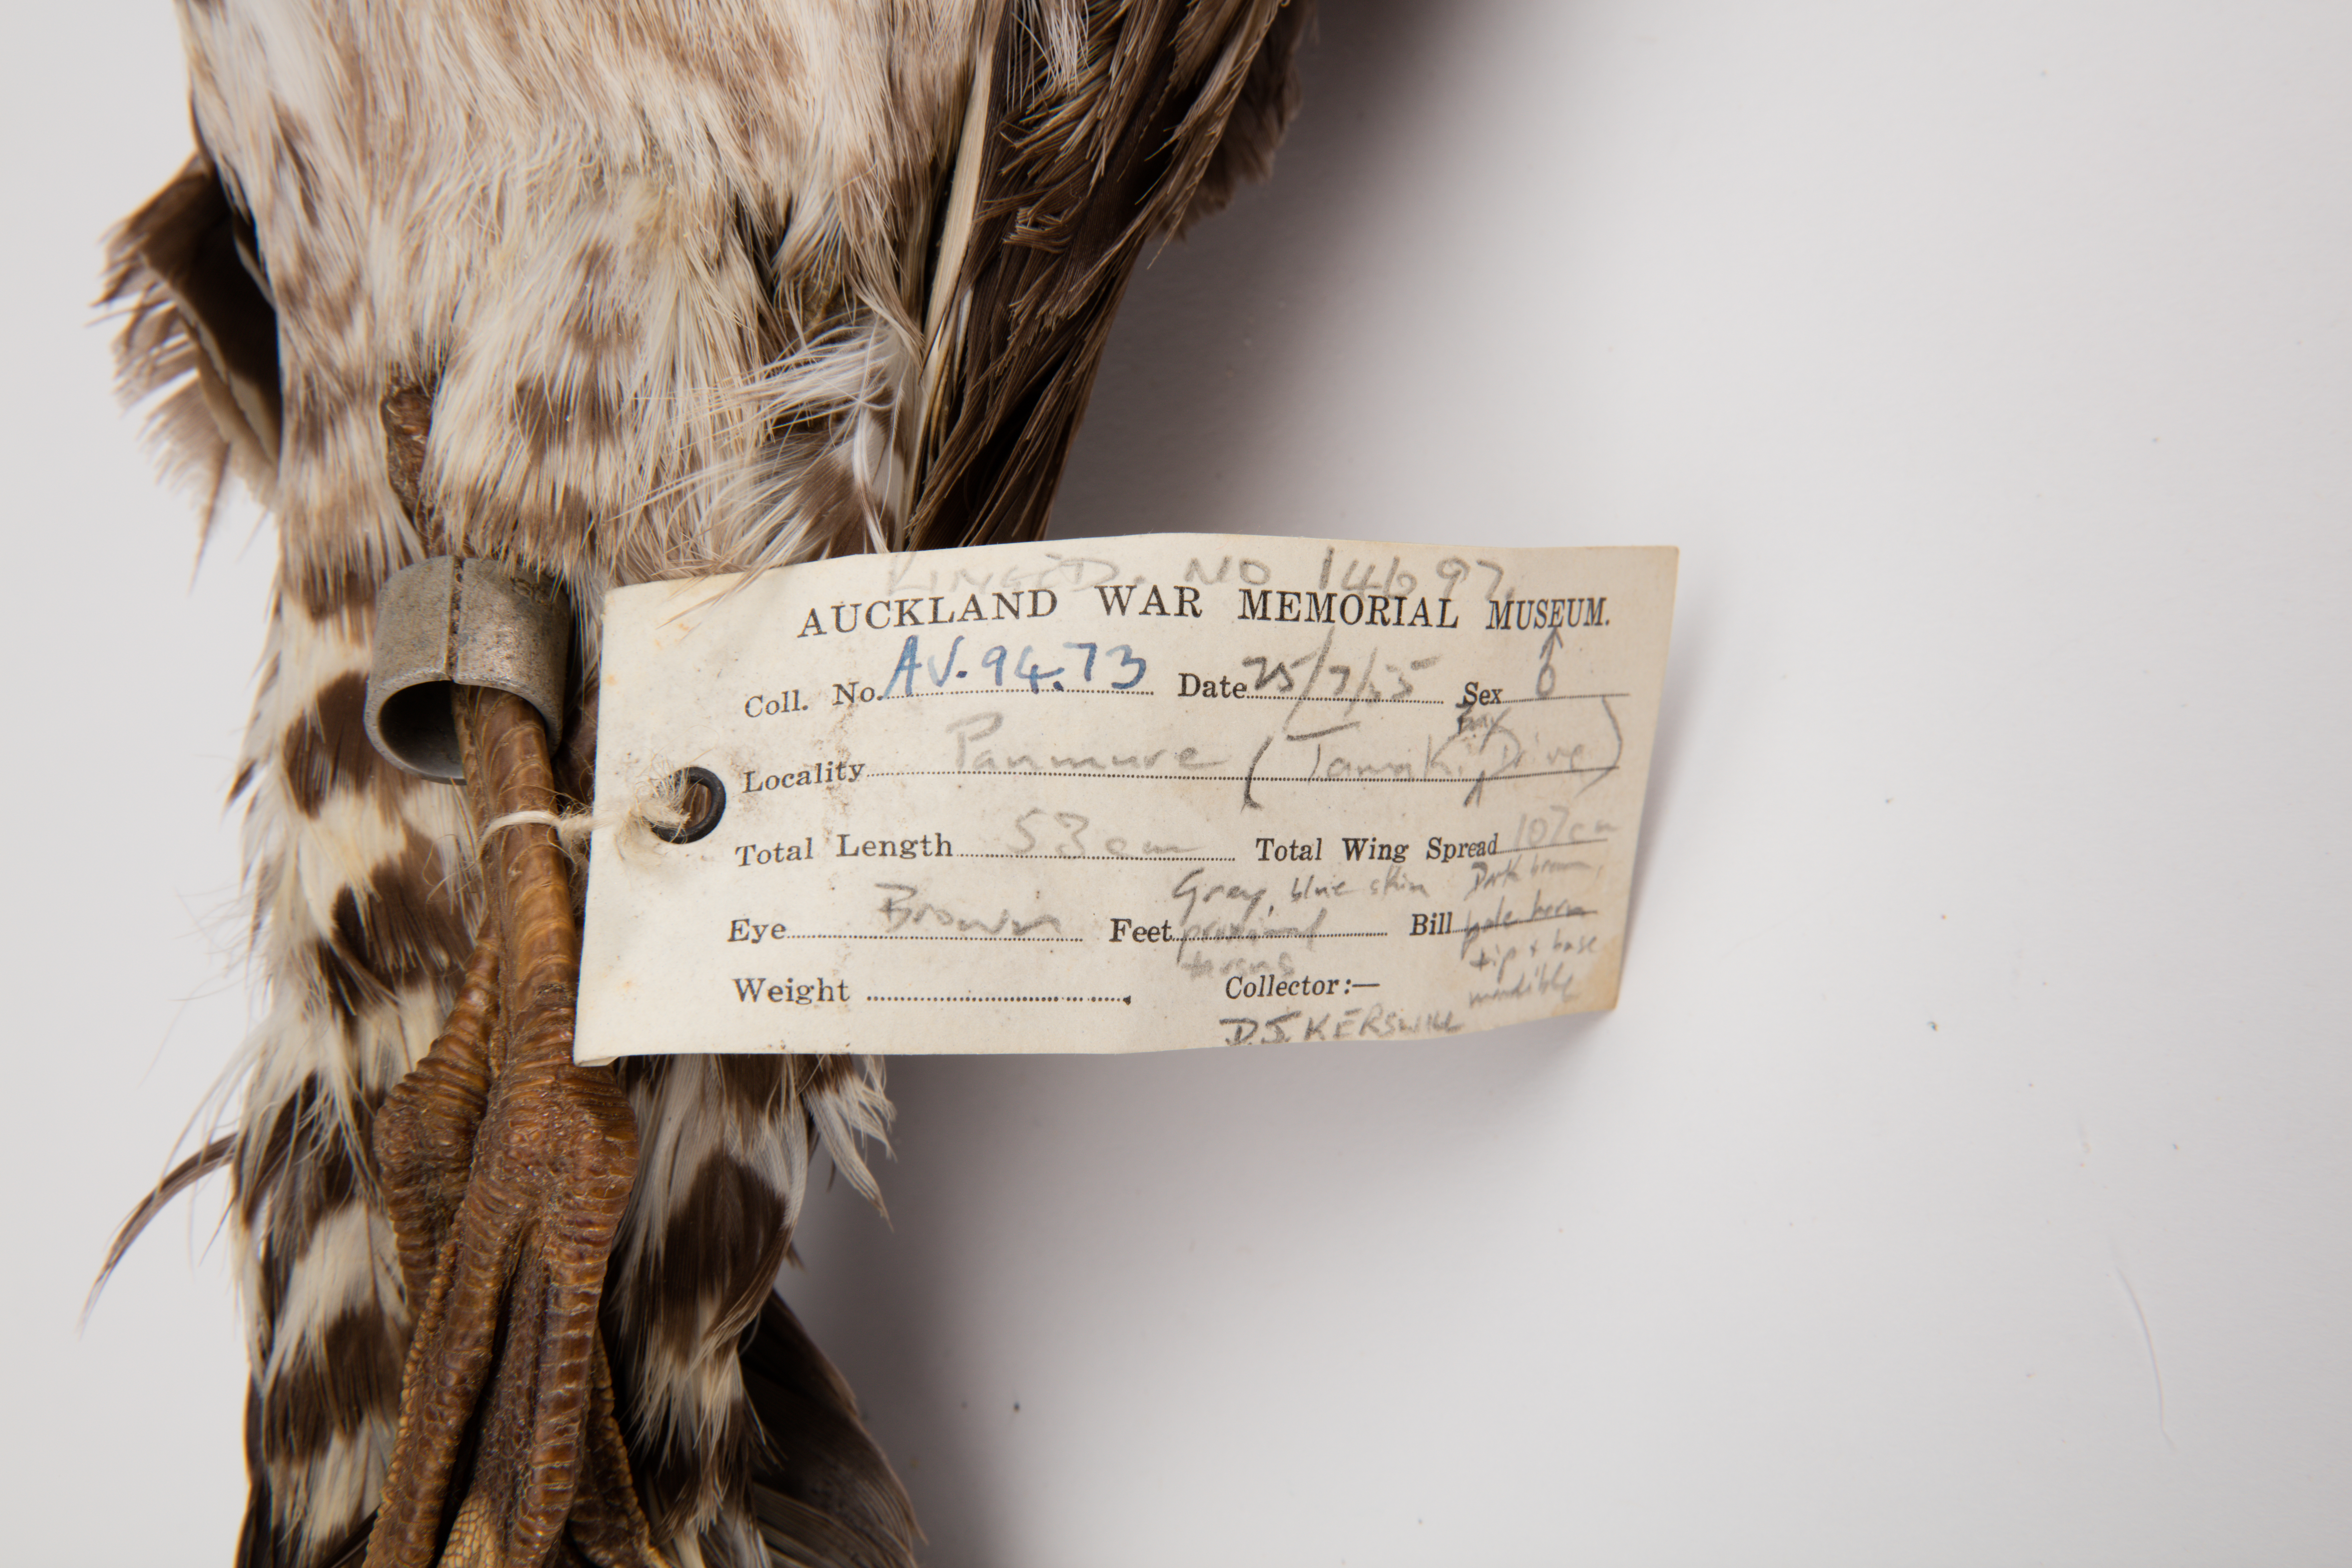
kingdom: Animalia
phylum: Chordata
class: Aves
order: Charadriiformes
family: Laridae
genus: Larus
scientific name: Larus dominicanus
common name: Kelp gull
